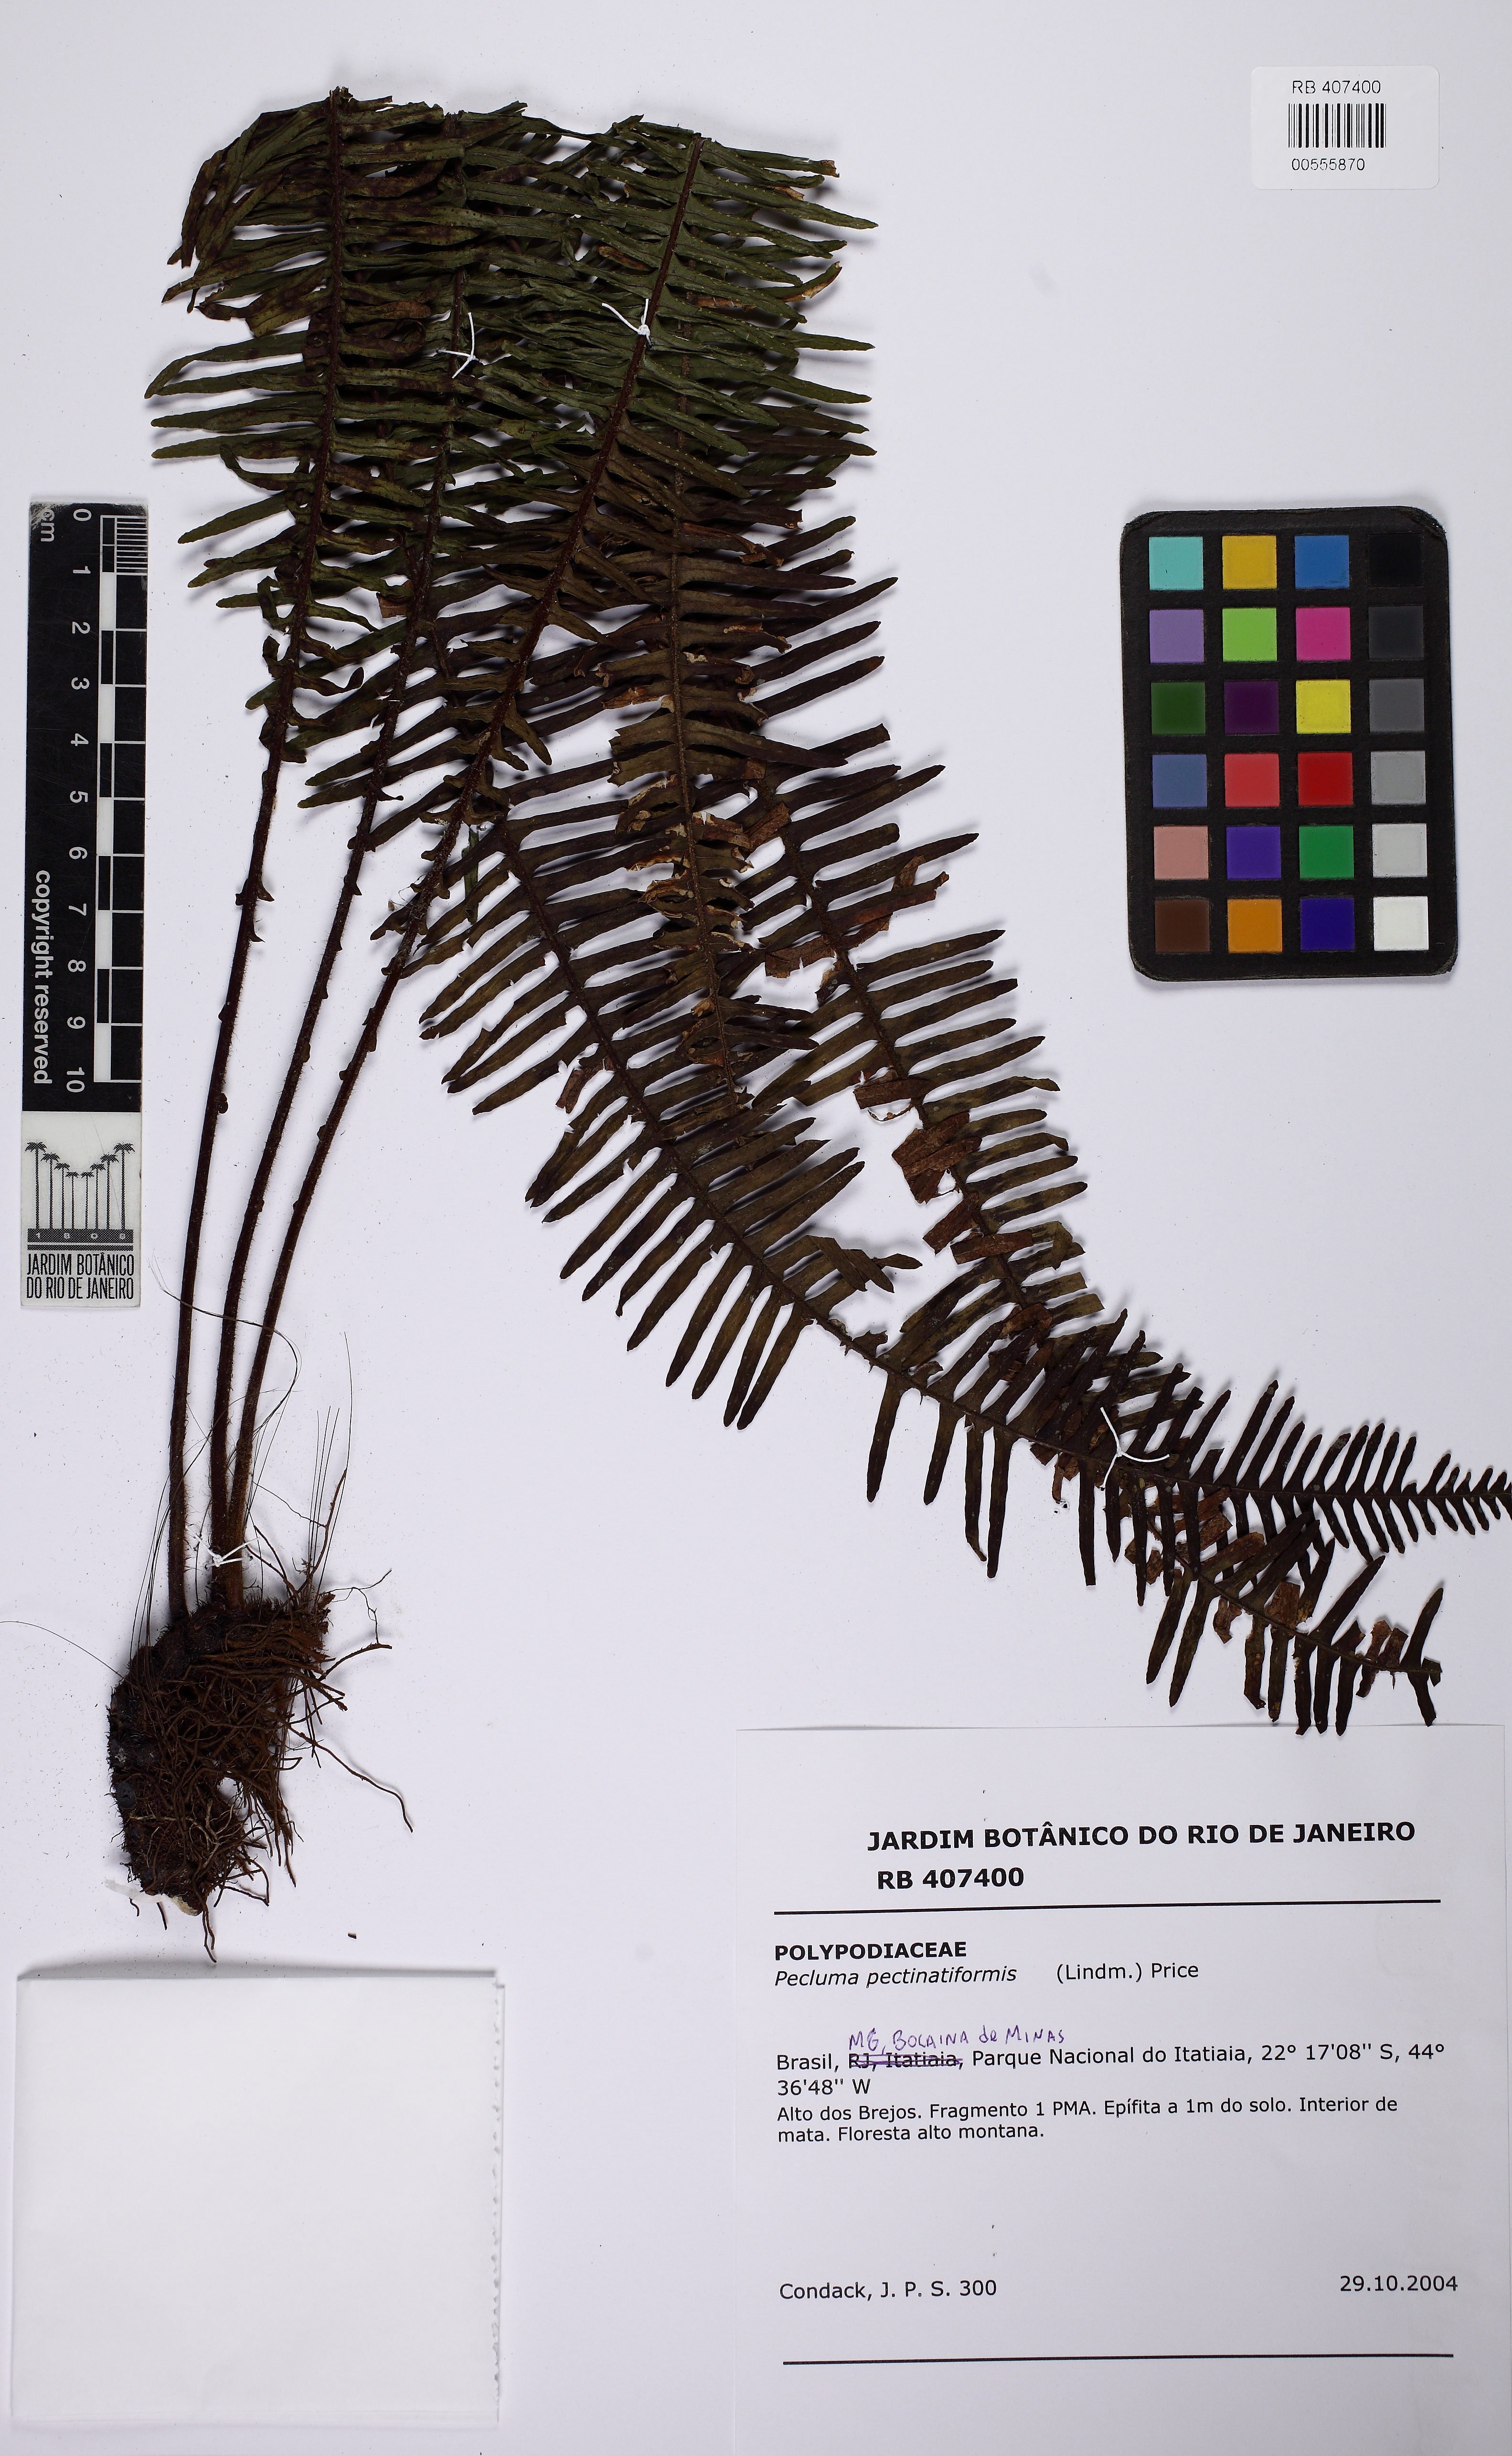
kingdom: Plantae
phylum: Tracheophyta
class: Polypodiopsida
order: Polypodiales
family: Polypodiaceae
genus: Pecluma
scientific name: Pecluma pectinatiformis
